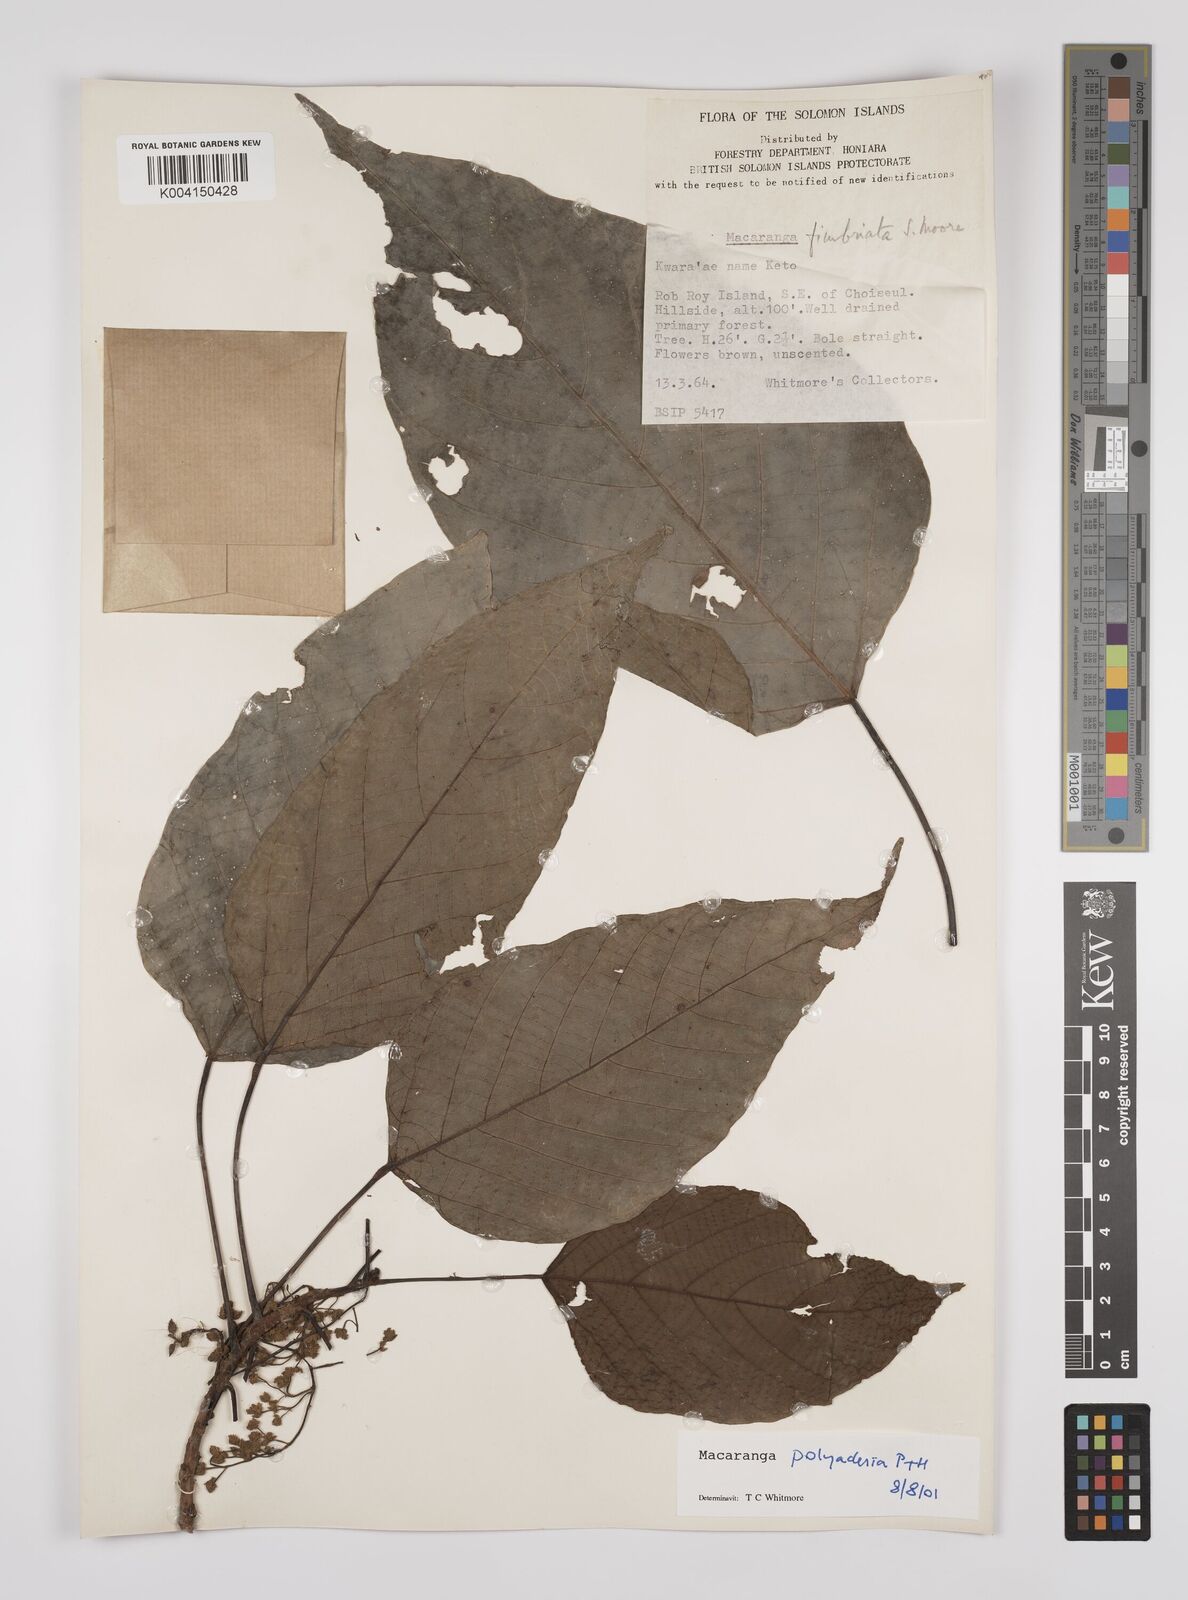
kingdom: Plantae
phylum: Tracheophyta
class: Magnoliopsida
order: Malpighiales
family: Euphorbiaceae
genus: Macaranga
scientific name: Macaranga polyadenia
